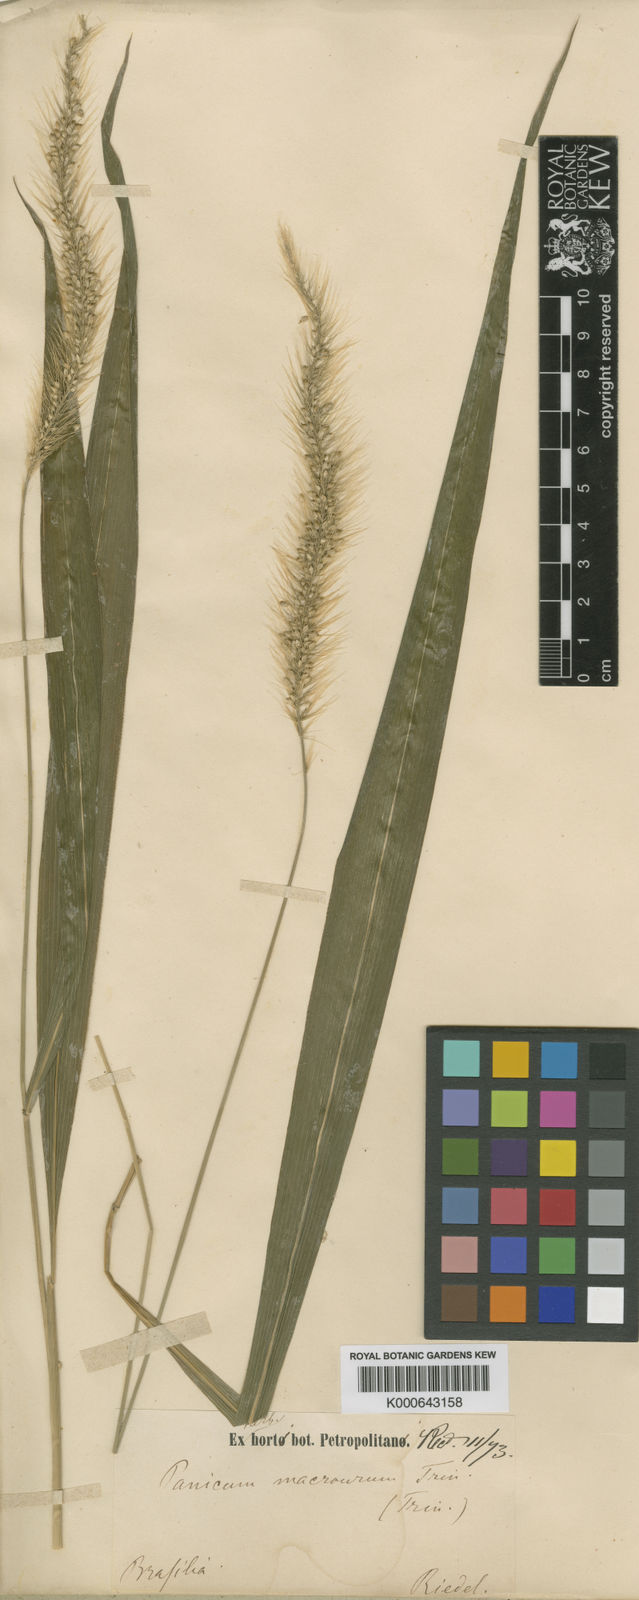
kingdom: Plantae
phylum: Tracheophyta
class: Liliopsida
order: Poales
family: Poaceae
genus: Setaria
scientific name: Setaria vulpiseta
